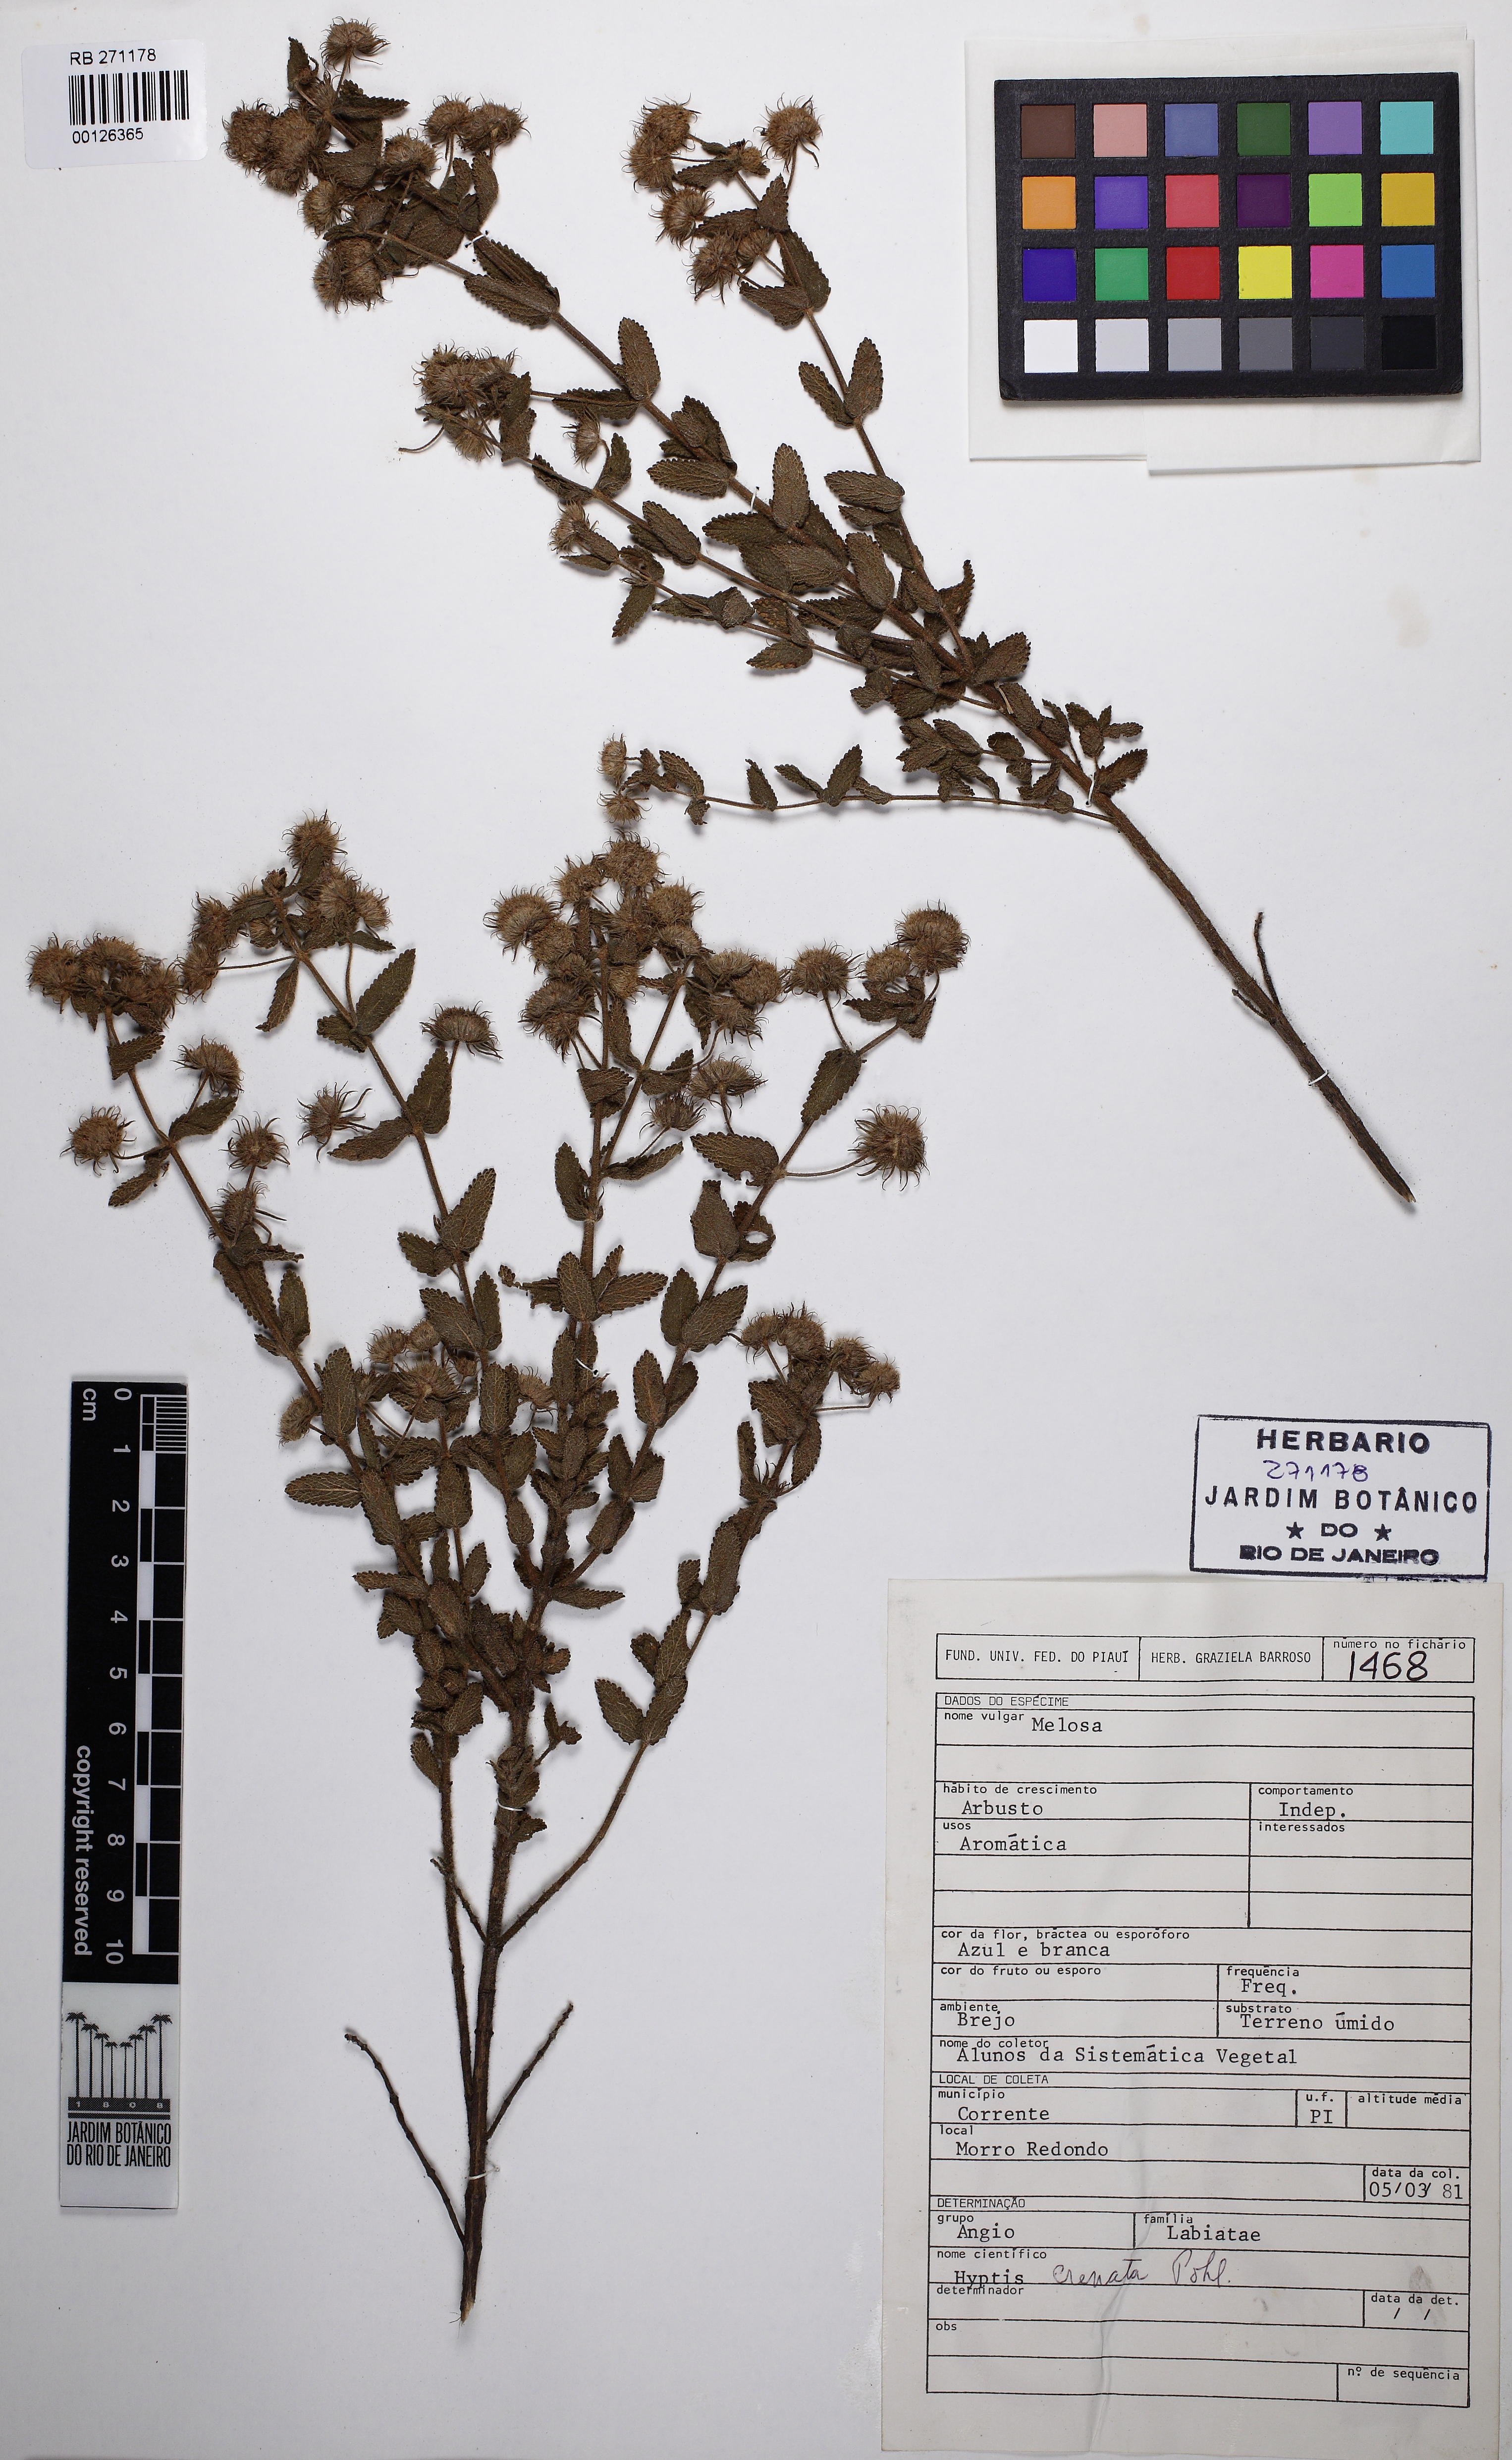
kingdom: Plantae
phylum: Tracheophyta
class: Magnoliopsida
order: Lamiales
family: Lamiaceae
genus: Hyptis
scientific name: Hyptis crenata
